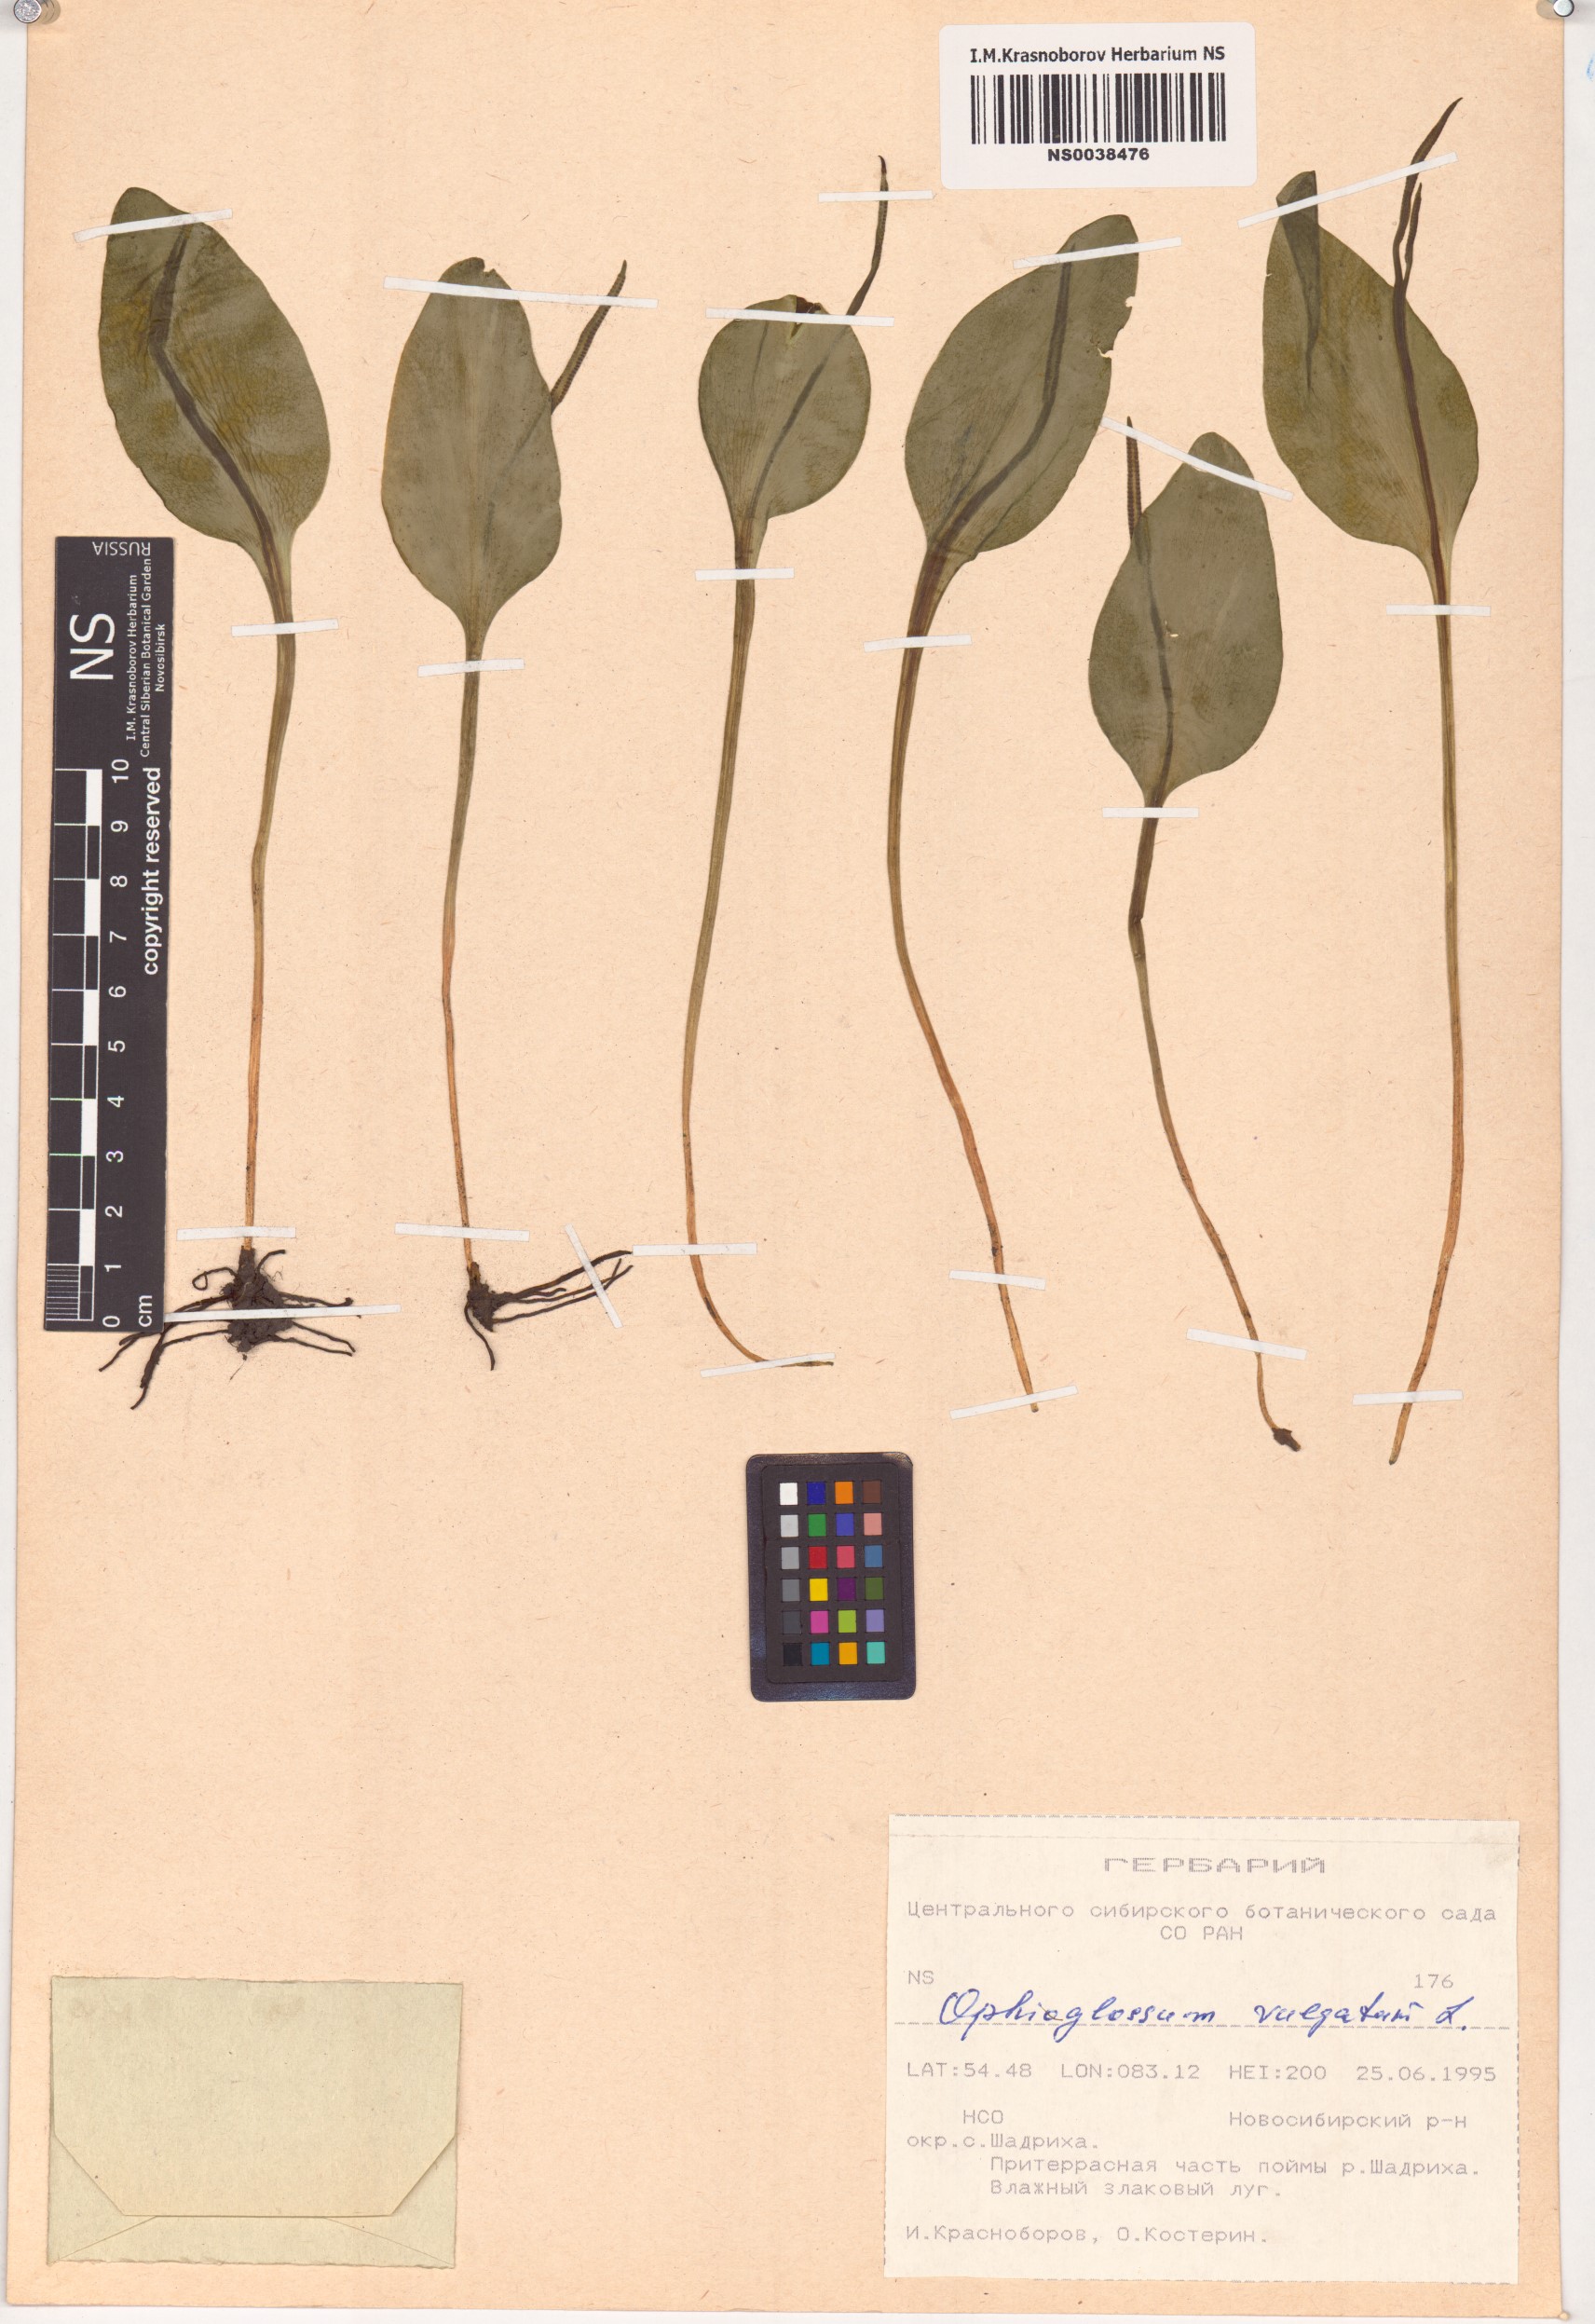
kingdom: Plantae
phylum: Tracheophyta
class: Polypodiopsida
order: Ophioglossales
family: Ophioglossaceae
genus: Ophioglossum
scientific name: Ophioglossum vulgatum
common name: Adder's-tongue
